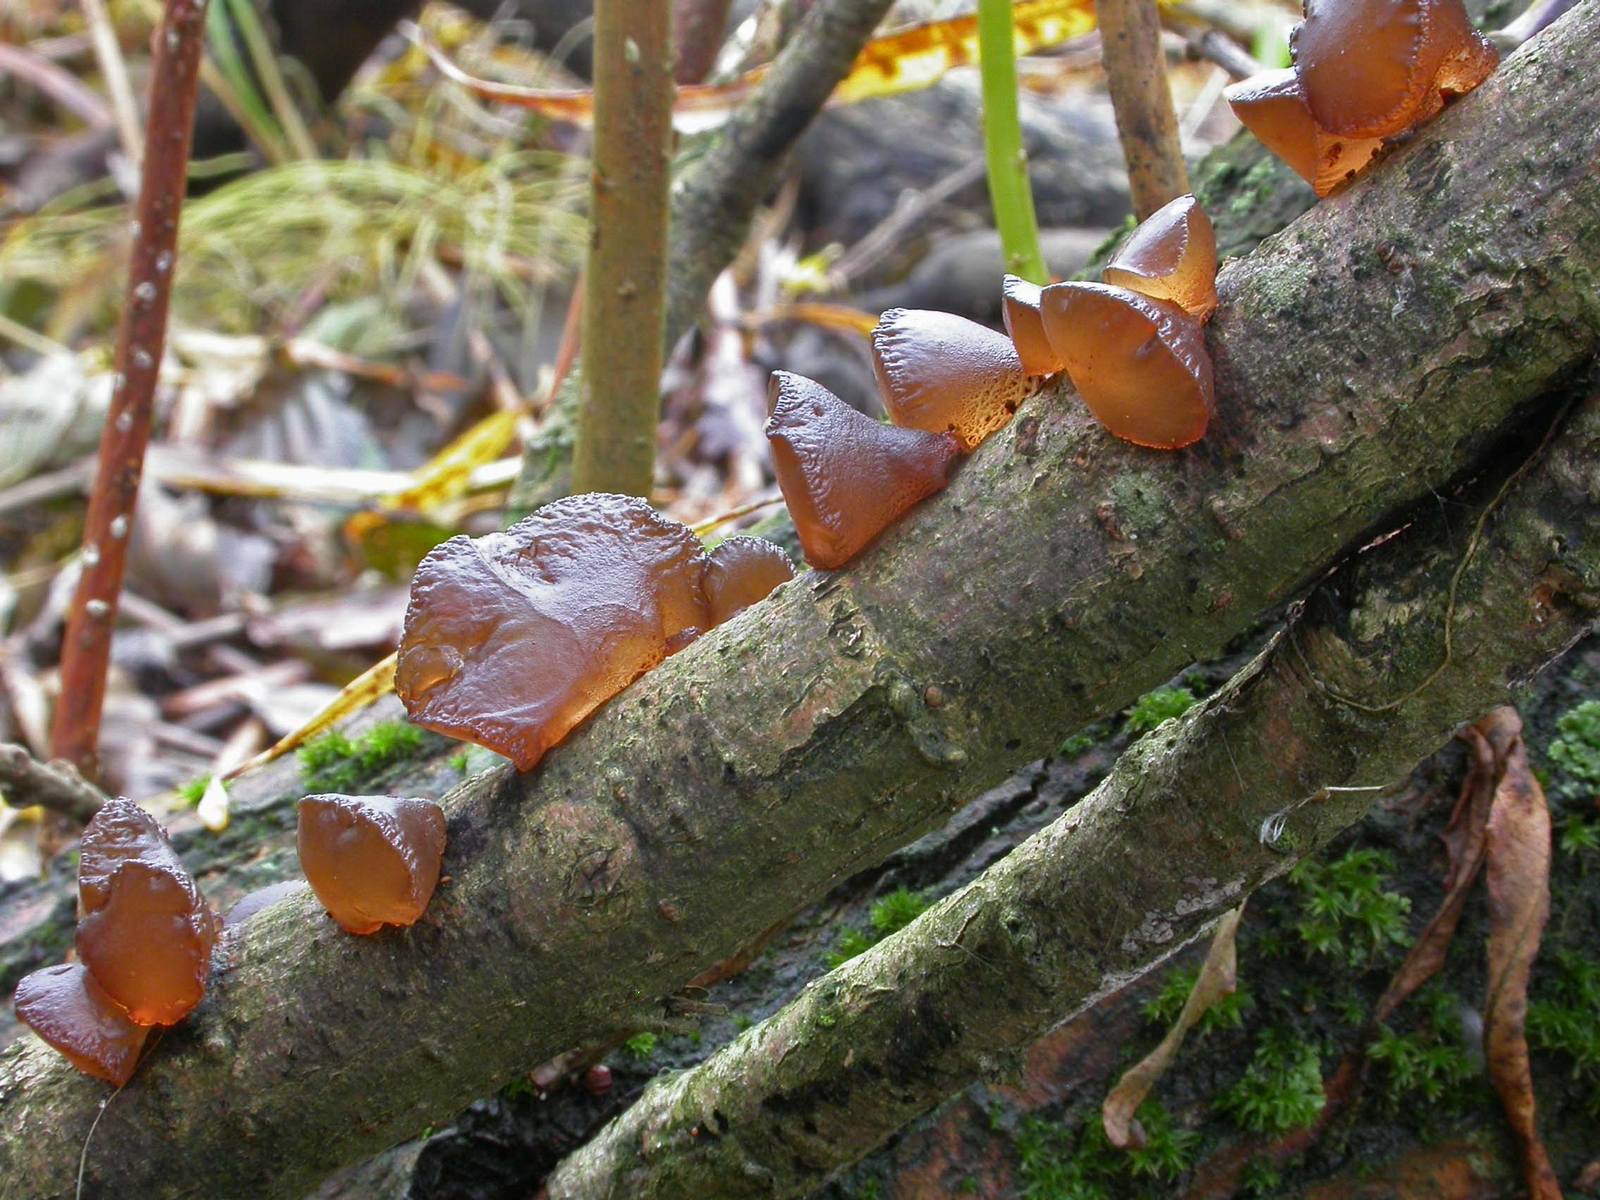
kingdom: Fungi
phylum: Basidiomycota
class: Agaricomycetes
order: Auriculariales
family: Auriculariaceae
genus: Exidia
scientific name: Exidia recisa
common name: pile-bævretop
